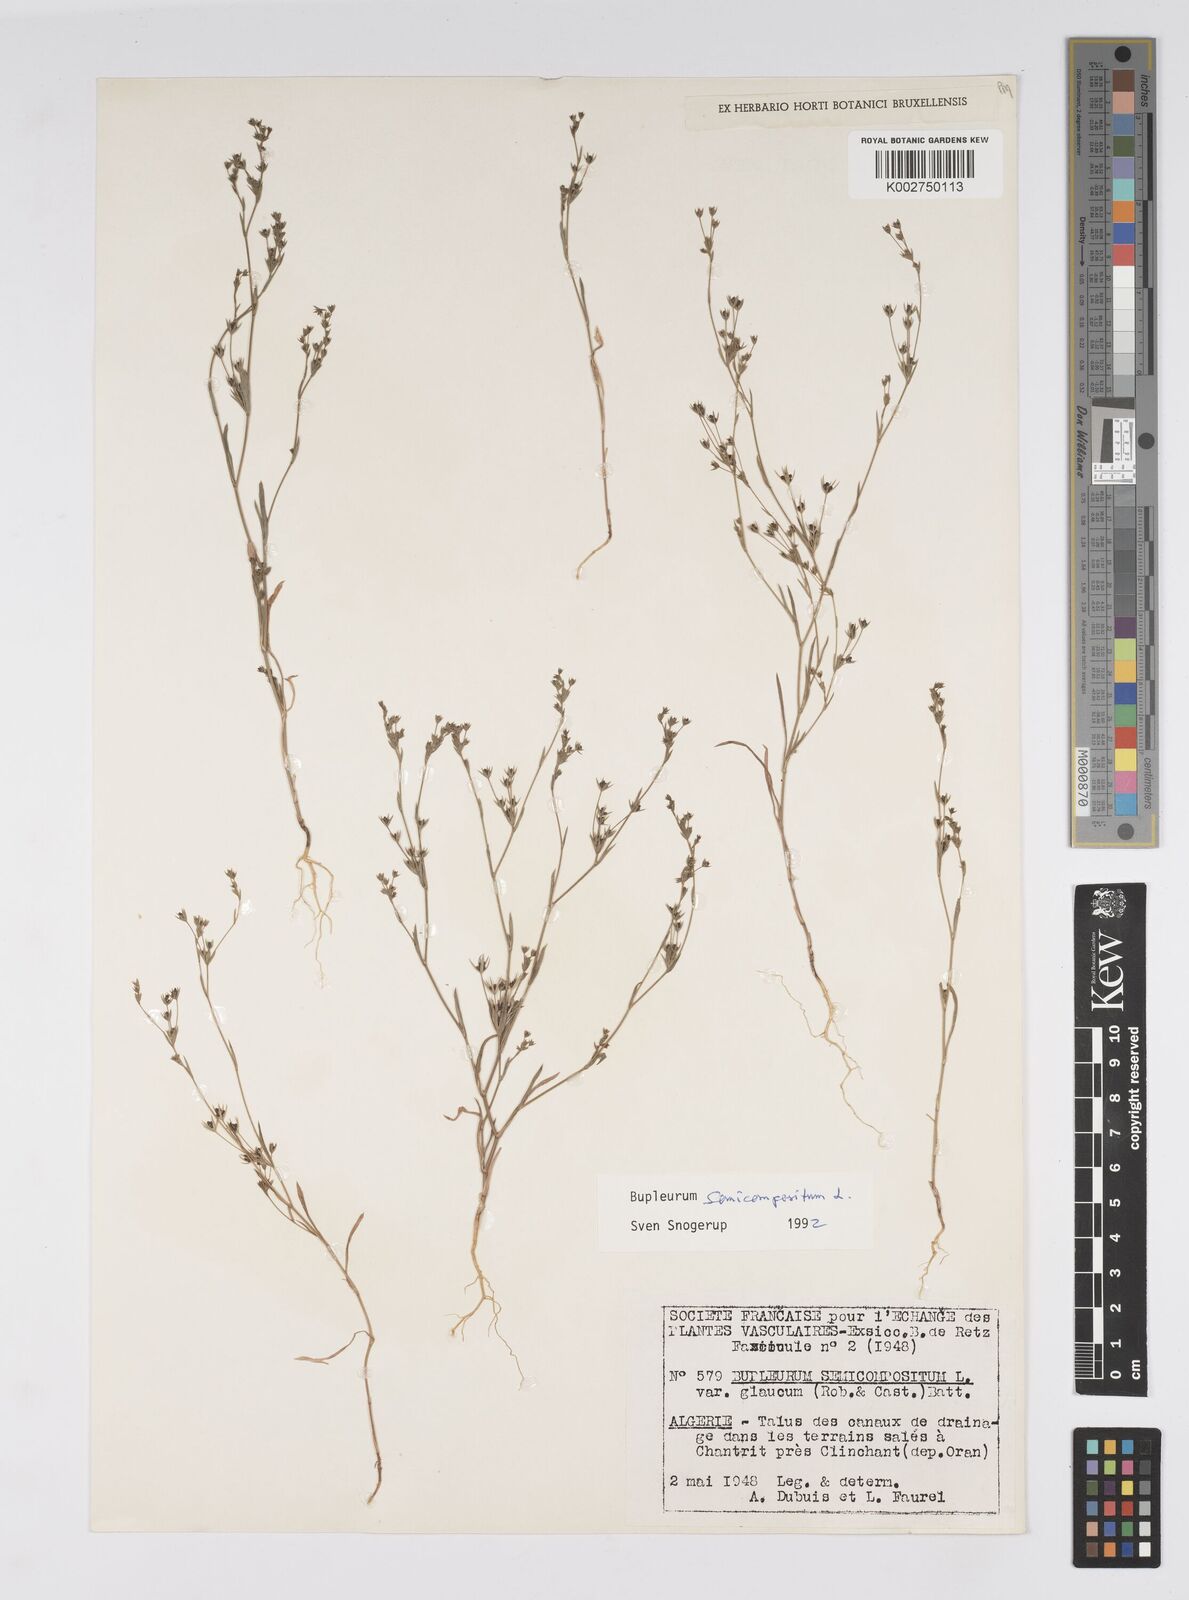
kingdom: Plantae
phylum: Tracheophyta
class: Magnoliopsida
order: Apiales
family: Apiaceae
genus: Bupleurum
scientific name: Bupleurum semicompositum
